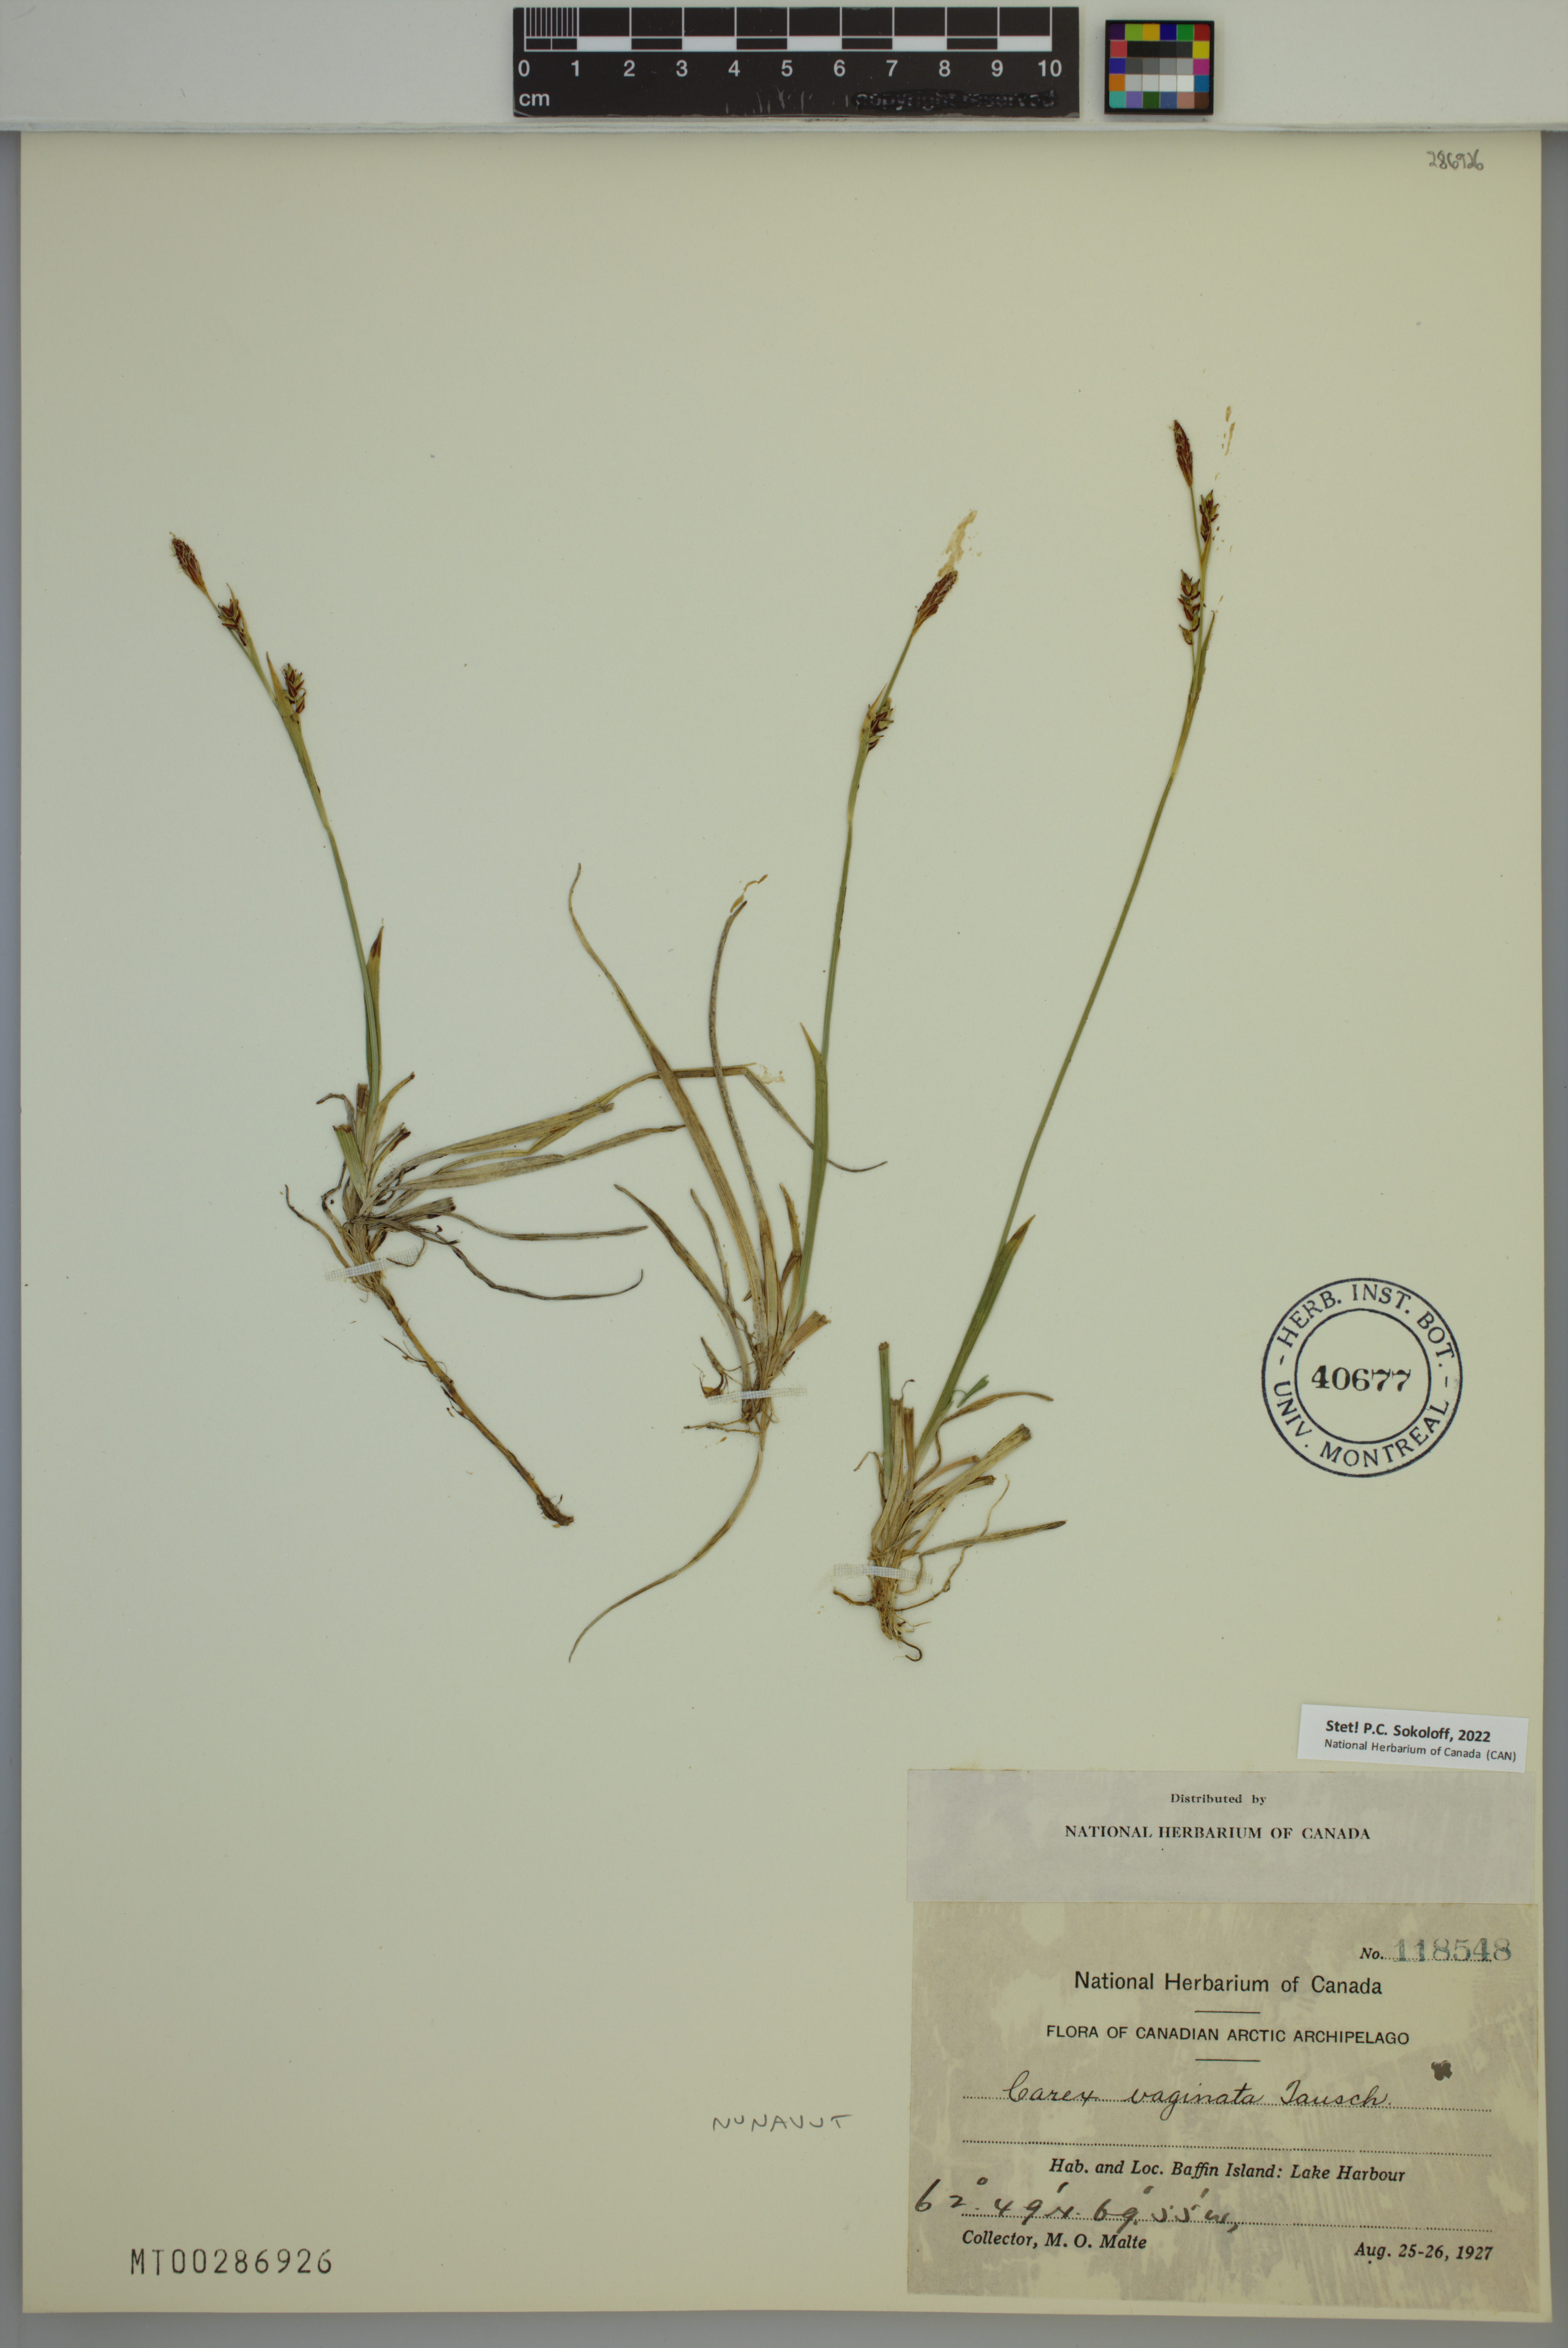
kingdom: Plantae
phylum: Tracheophyta
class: Liliopsida
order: Poales
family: Cyperaceae
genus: Carex
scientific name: Carex vaginata
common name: Sheathed sedge
